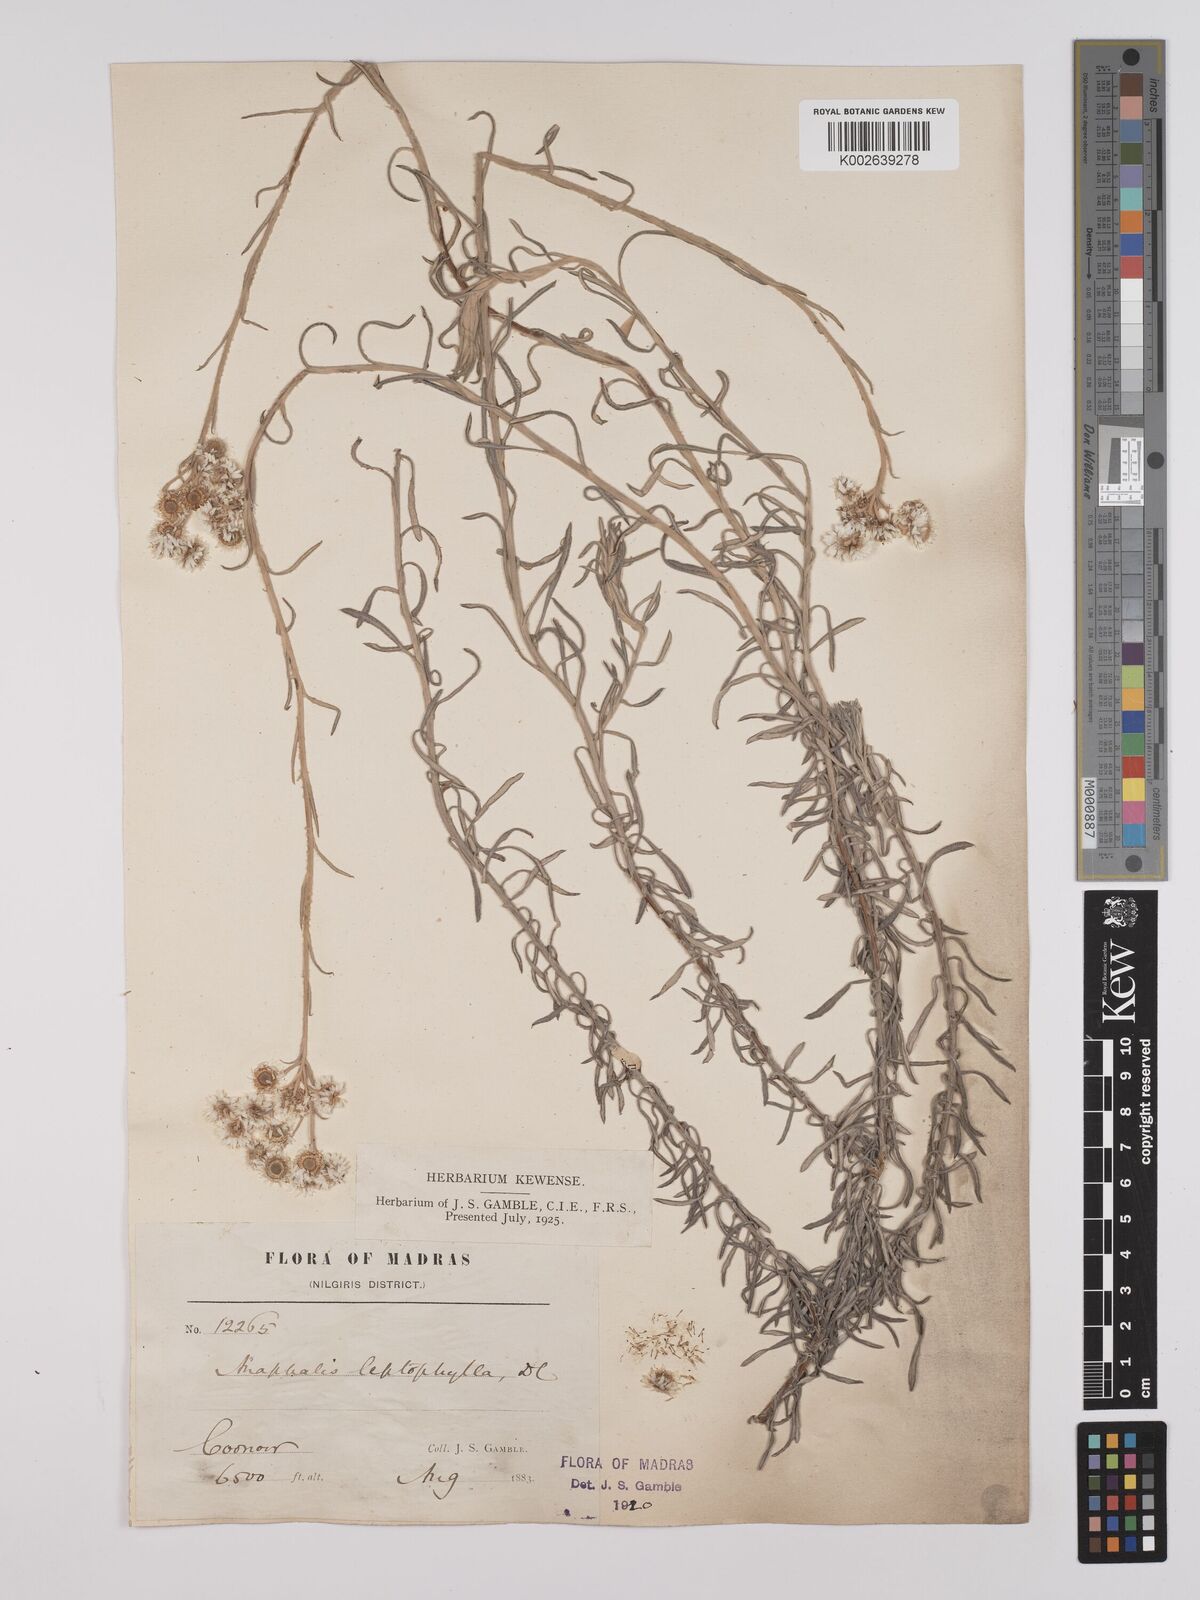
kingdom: Plantae
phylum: Tracheophyta
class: Magnoliopsida
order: Asterales
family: Asteraceae
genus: Anaphalis
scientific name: Anaphalis leptophylla
